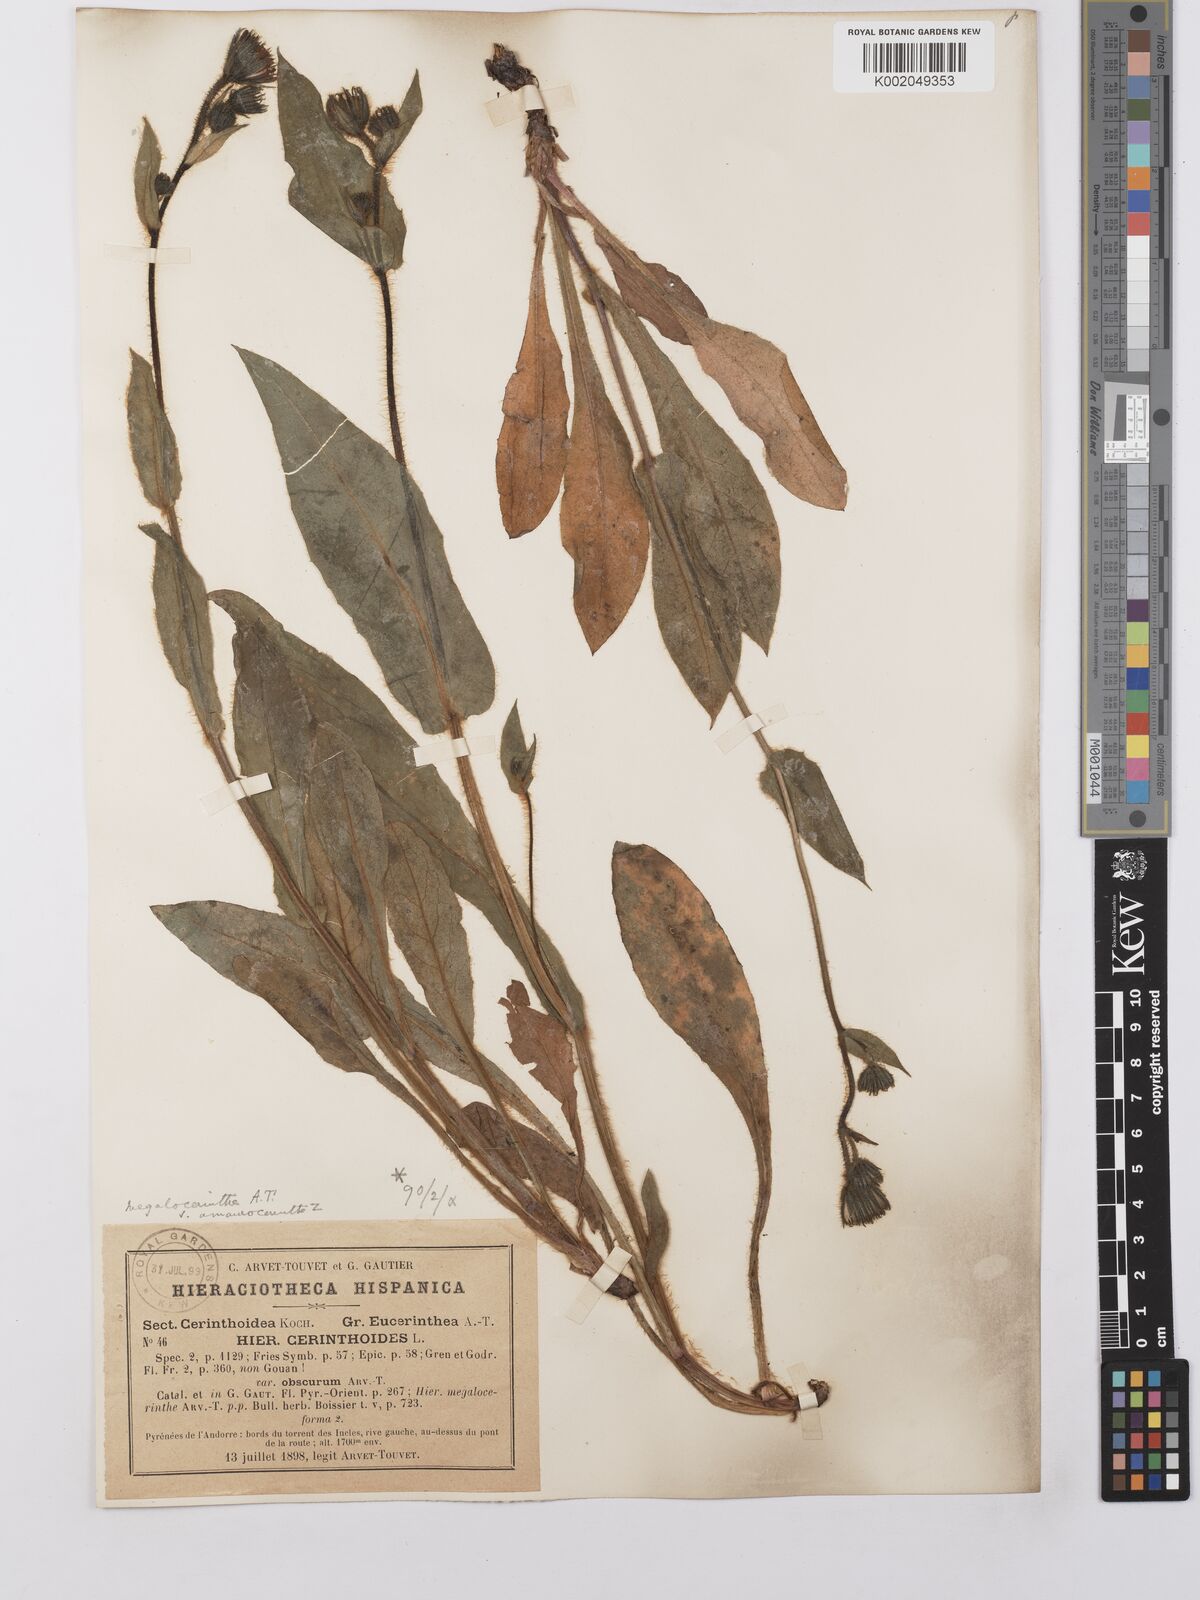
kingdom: Plantae
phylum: Tracheophyta
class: Magnoliopsida
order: Asterales
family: Asteraceae
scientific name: Asteraceae
